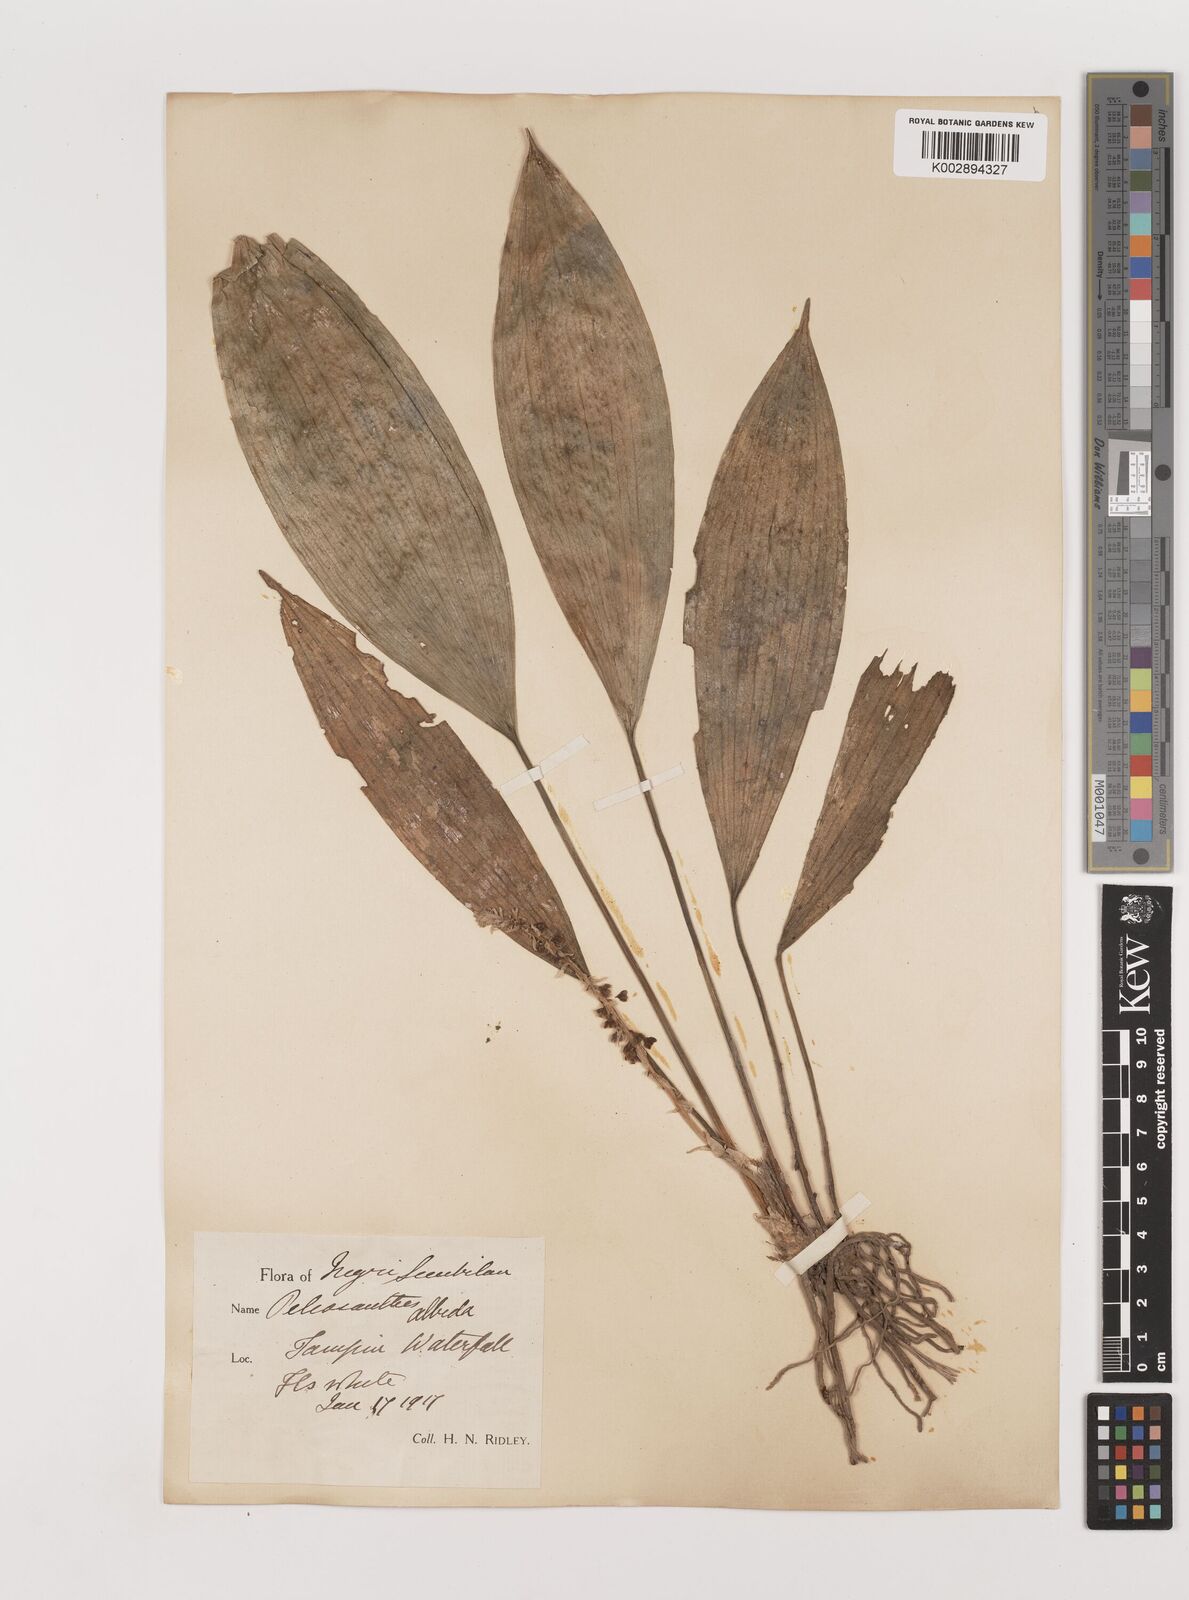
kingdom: Plantae
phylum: Tracheophyta
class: Liliopsida
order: Asparagales
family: Asparagaceae
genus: Peliosanthes
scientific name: Peliosanthes teta
